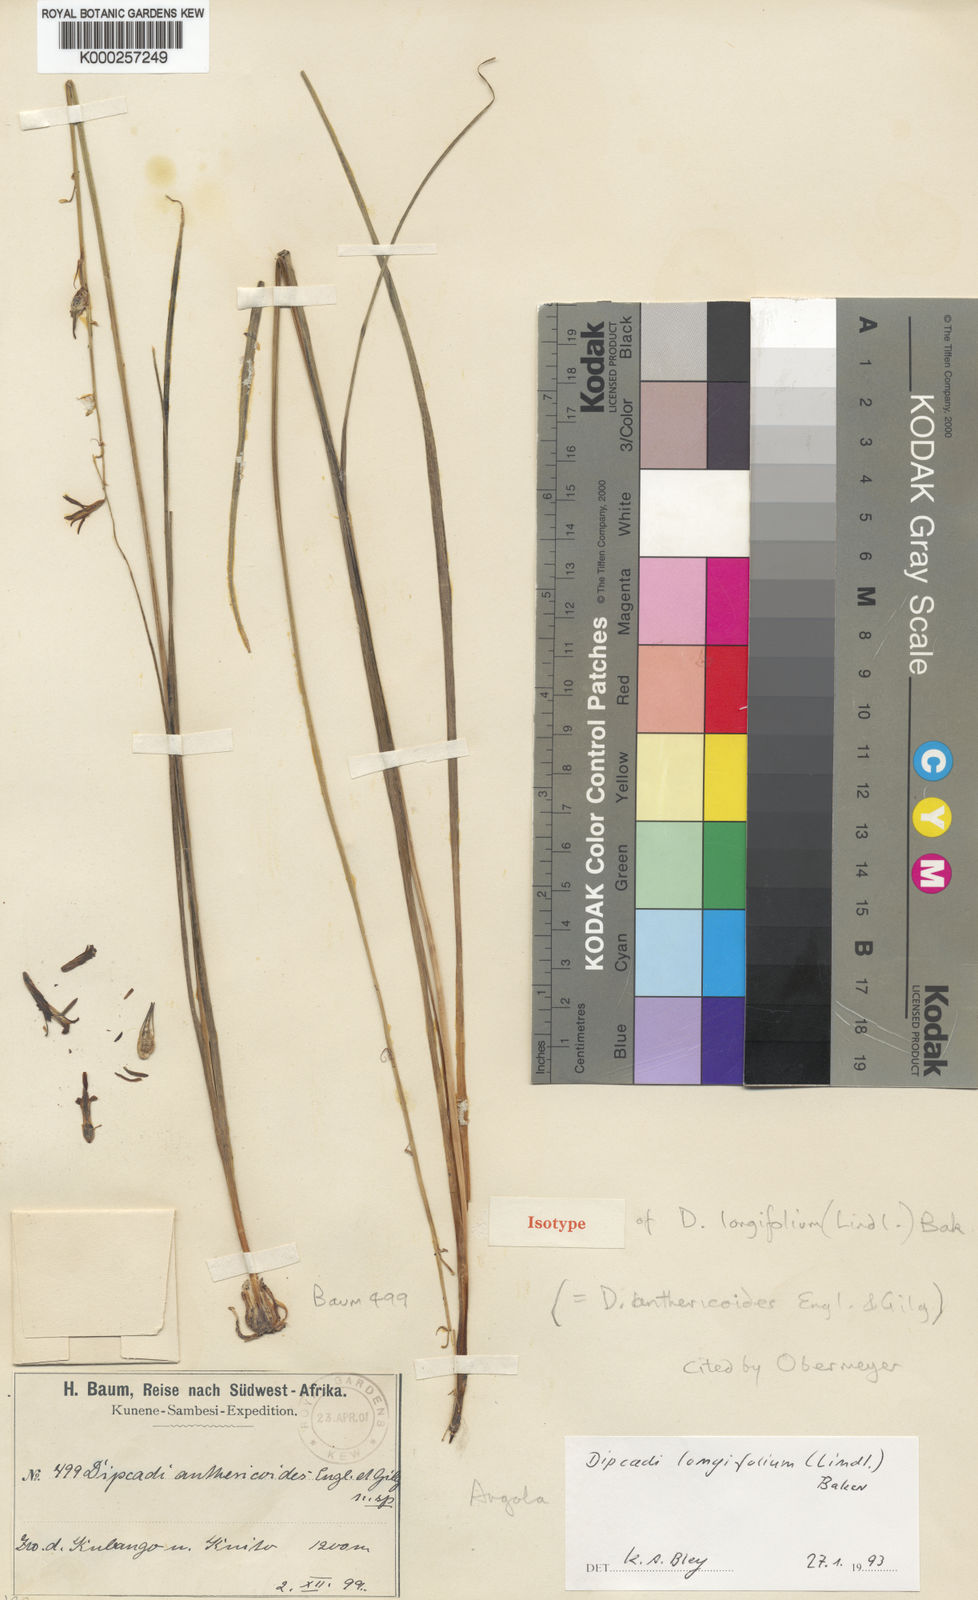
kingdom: Plantae
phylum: Tracheophyta
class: Liliopsida
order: Asparagales
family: Asparagaceae
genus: Dipcadi
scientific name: Dipcadi longifolium
